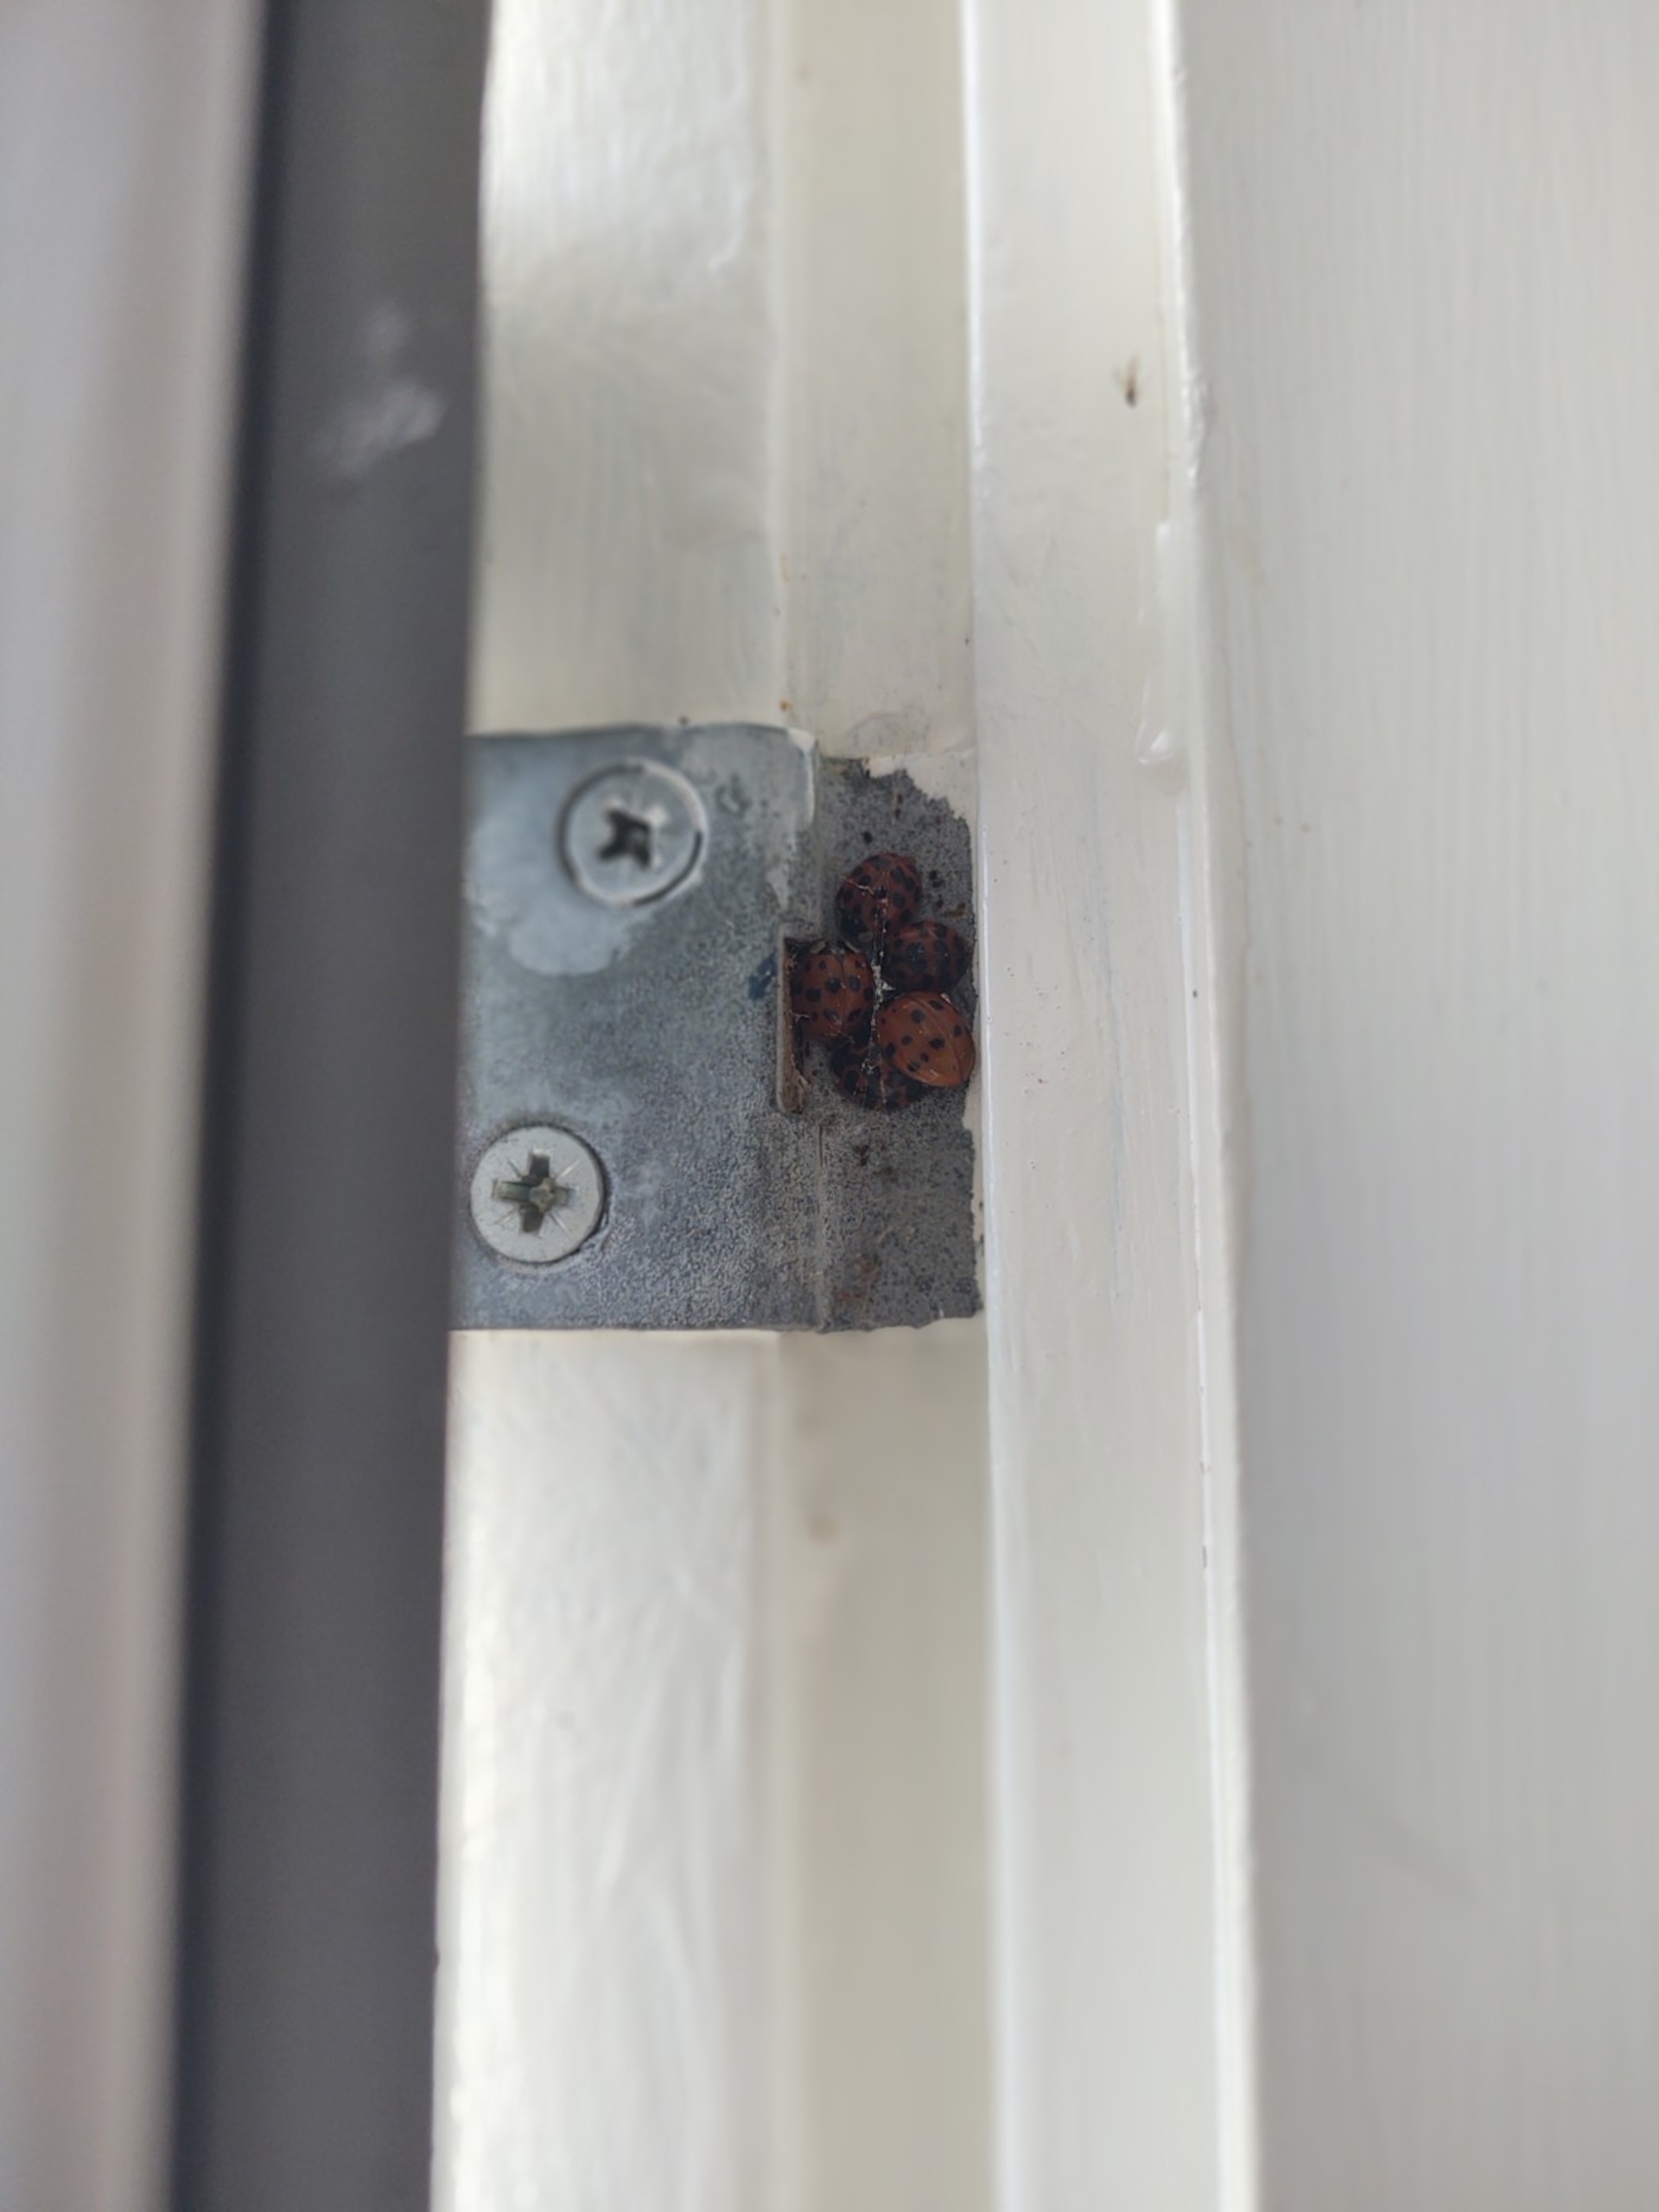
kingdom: Animalia
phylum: Arthropoda
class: Insecta
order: Coleoptera
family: Coccinellidae
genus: Harmonia
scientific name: Harmonia axyridis
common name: Harlekinmariehøne
